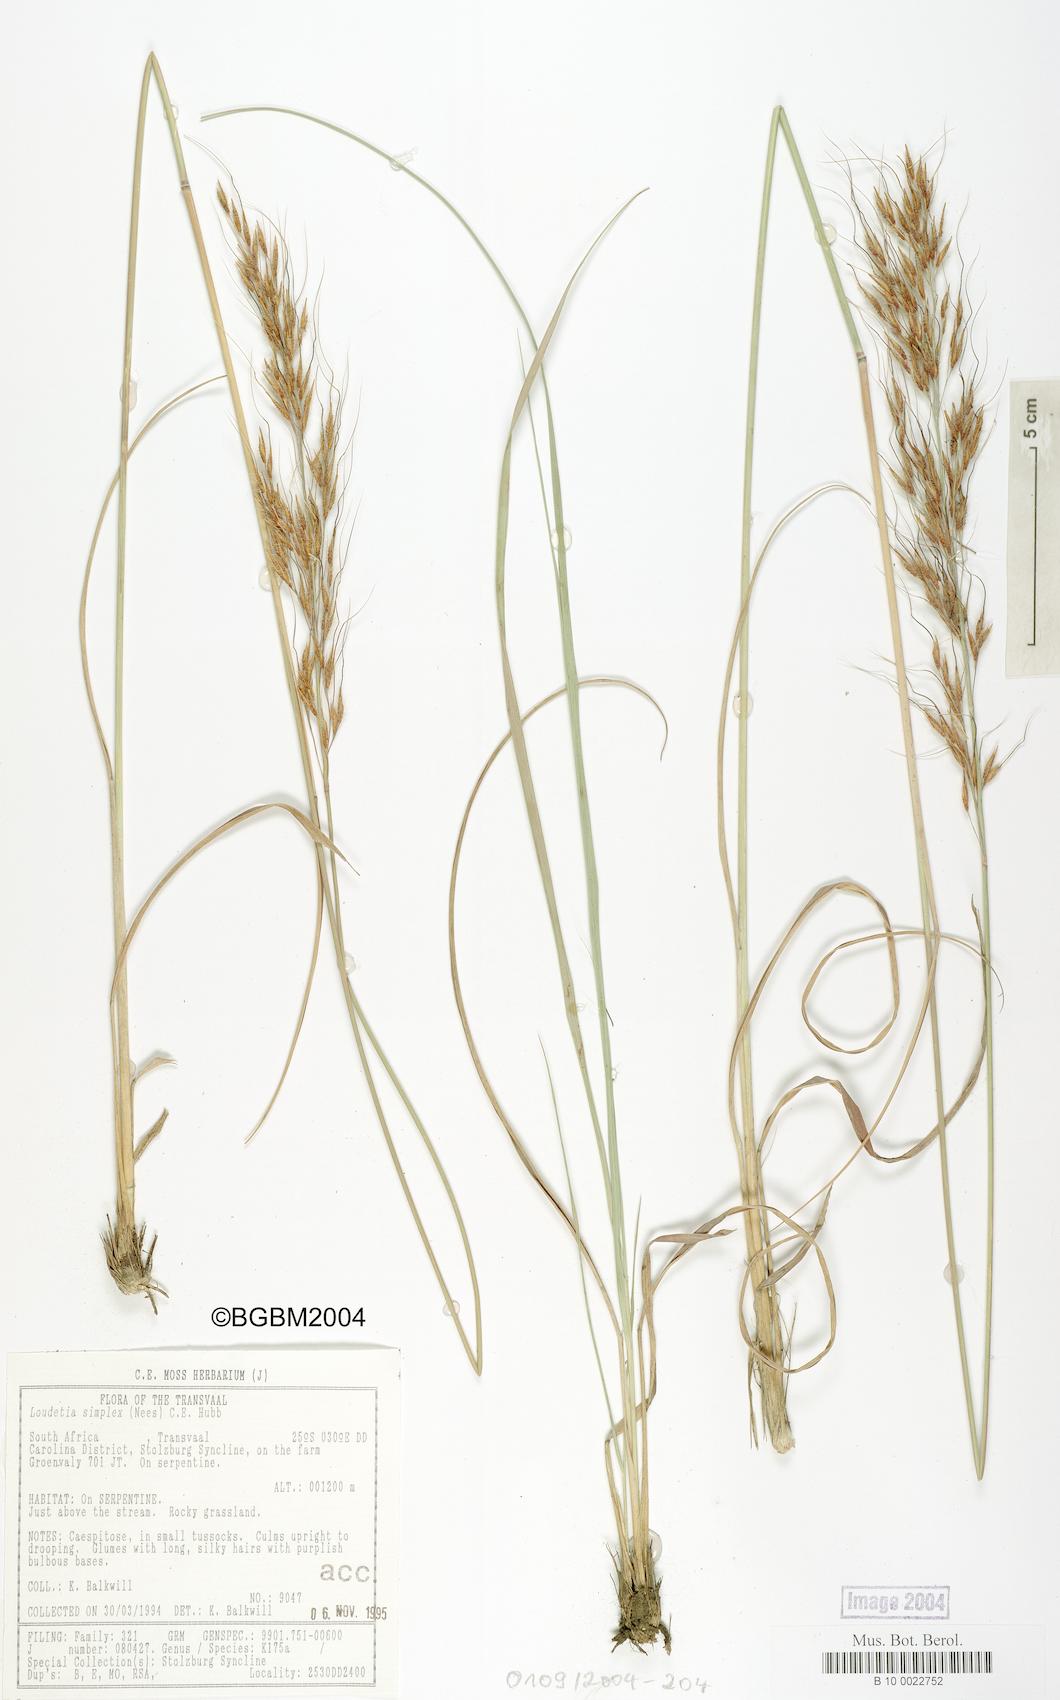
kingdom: Plantae
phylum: Tracheophyta
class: Liliopsida
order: Poales
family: Poaceae
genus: Loudetia
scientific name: Loudetia simplex
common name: Common russet grass
